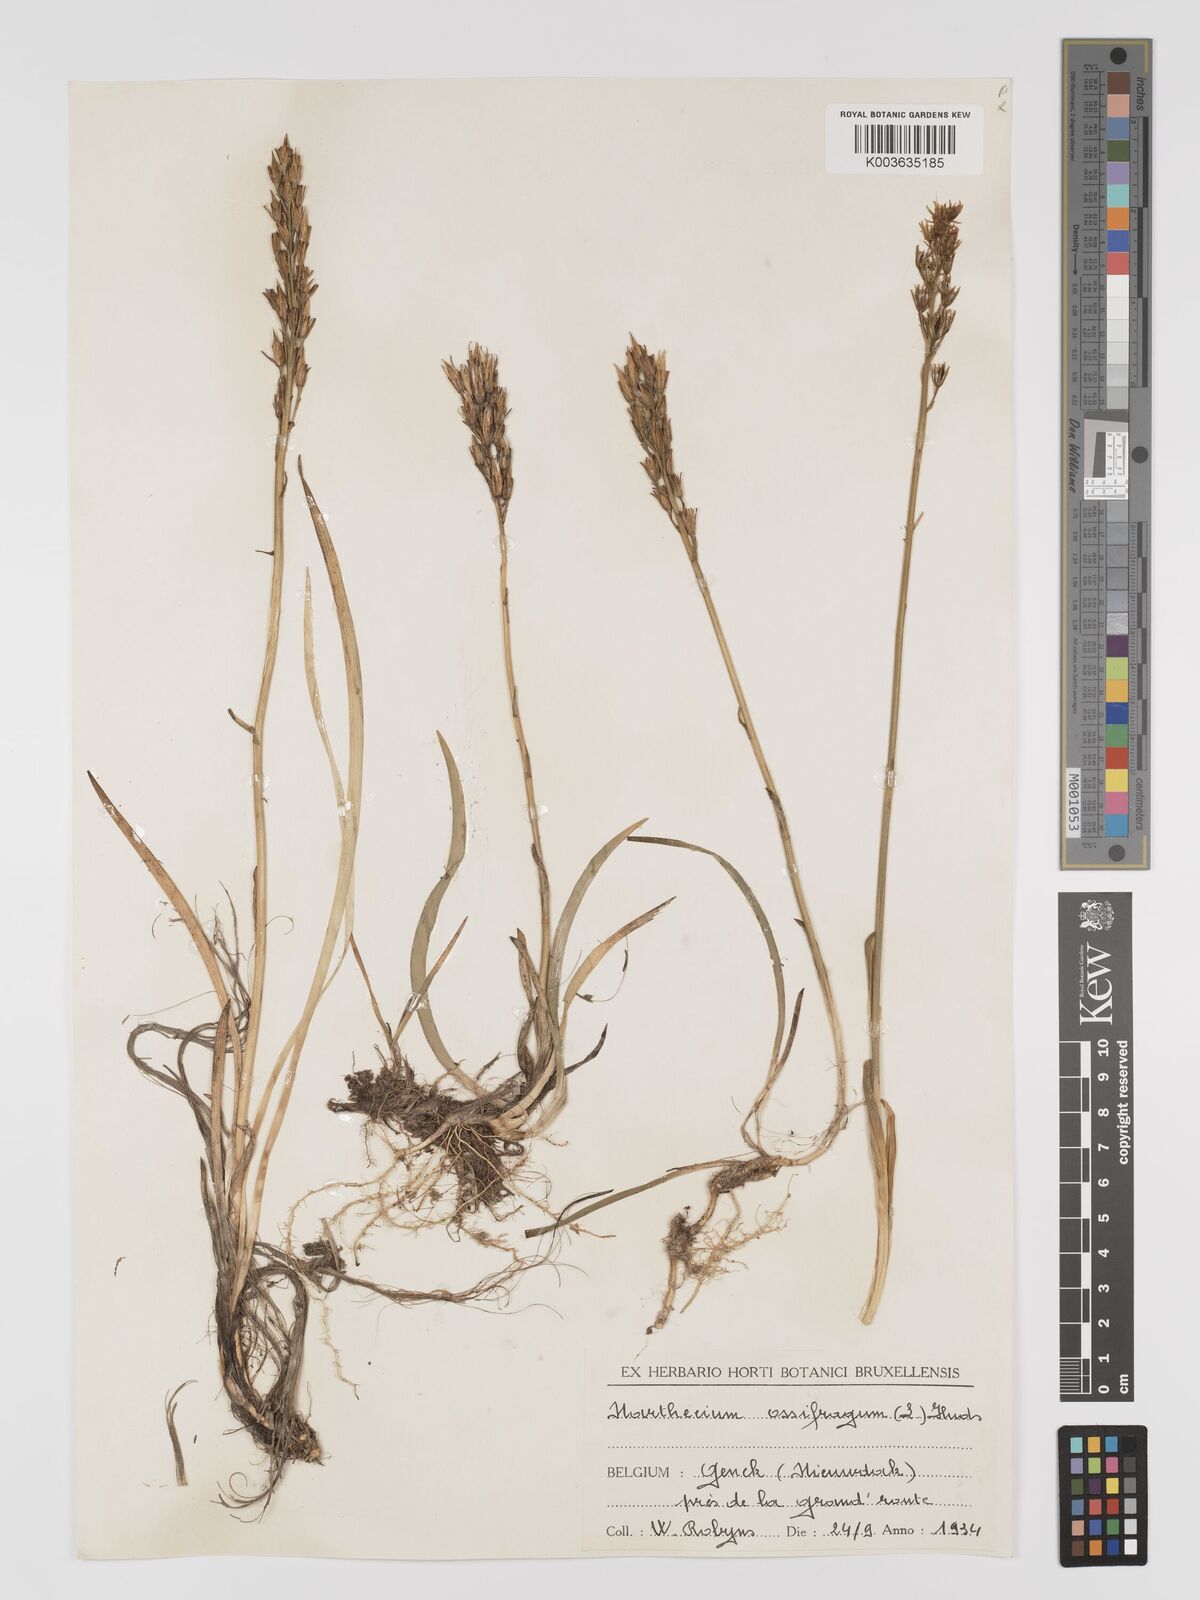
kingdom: Plantae
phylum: Tracheophyta
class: Liliopsida
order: Dioscoreales
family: Nartheciaceae
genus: Narthecium
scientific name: Narthecium ossifragum
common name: Bog asphodel
